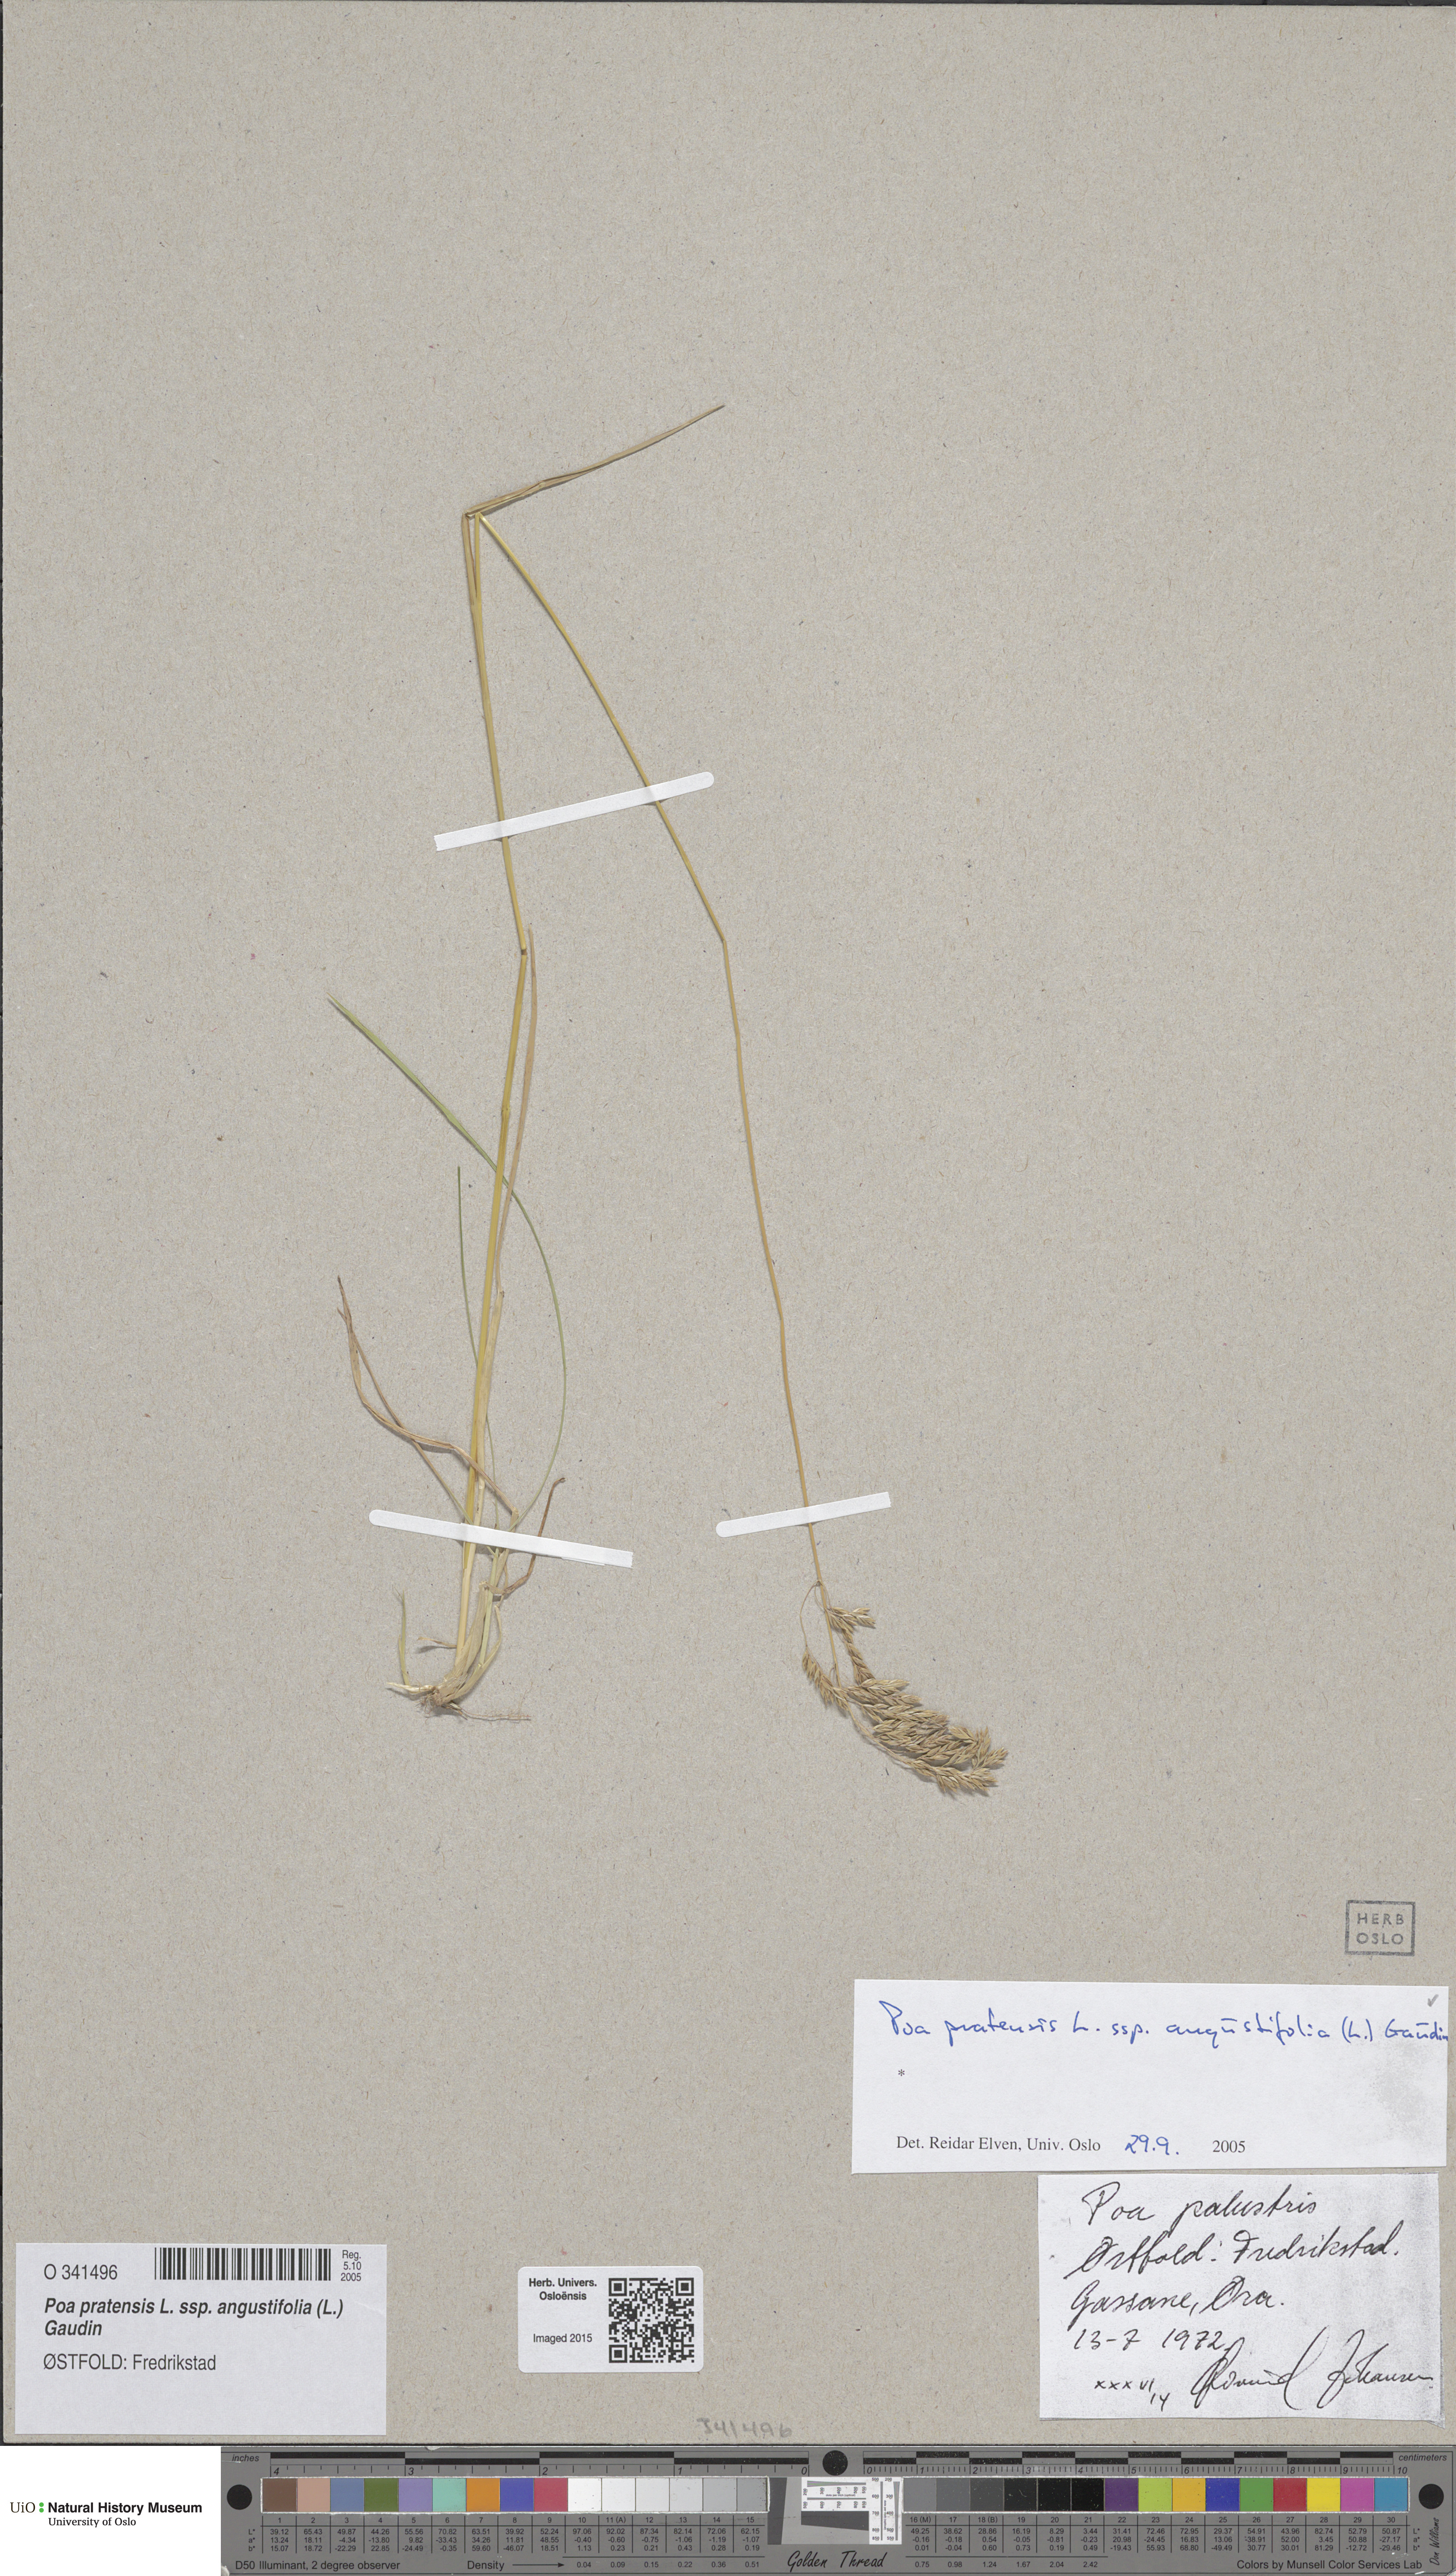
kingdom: Plantae
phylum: Tracheophyta
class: Liliopsida
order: Poales
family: Poaceae
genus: Poa
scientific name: Poa angustifolia
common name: Narrow-leaved meadow-grass
